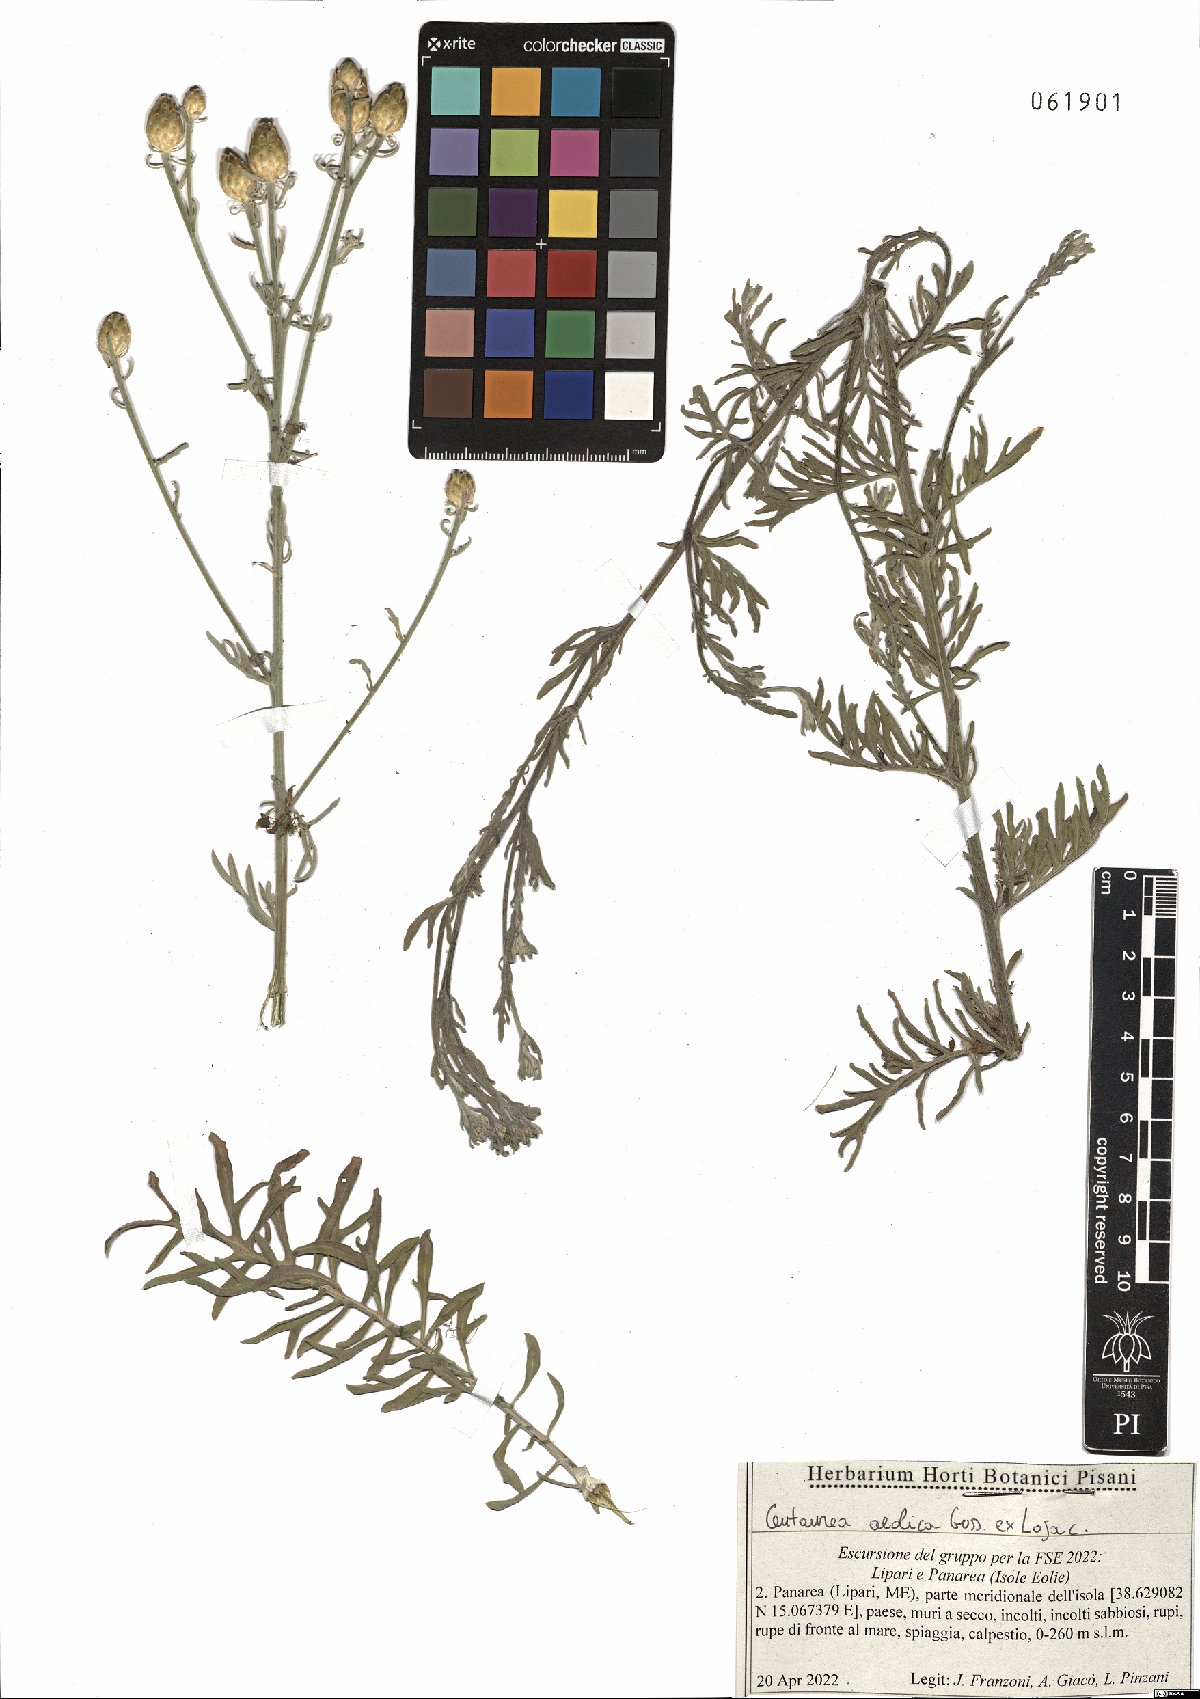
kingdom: Plantae
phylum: Tracheophyta
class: Magnoliopsida
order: Asterales
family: Asteraceae
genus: Centaurea
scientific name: Centaurea aeolica
